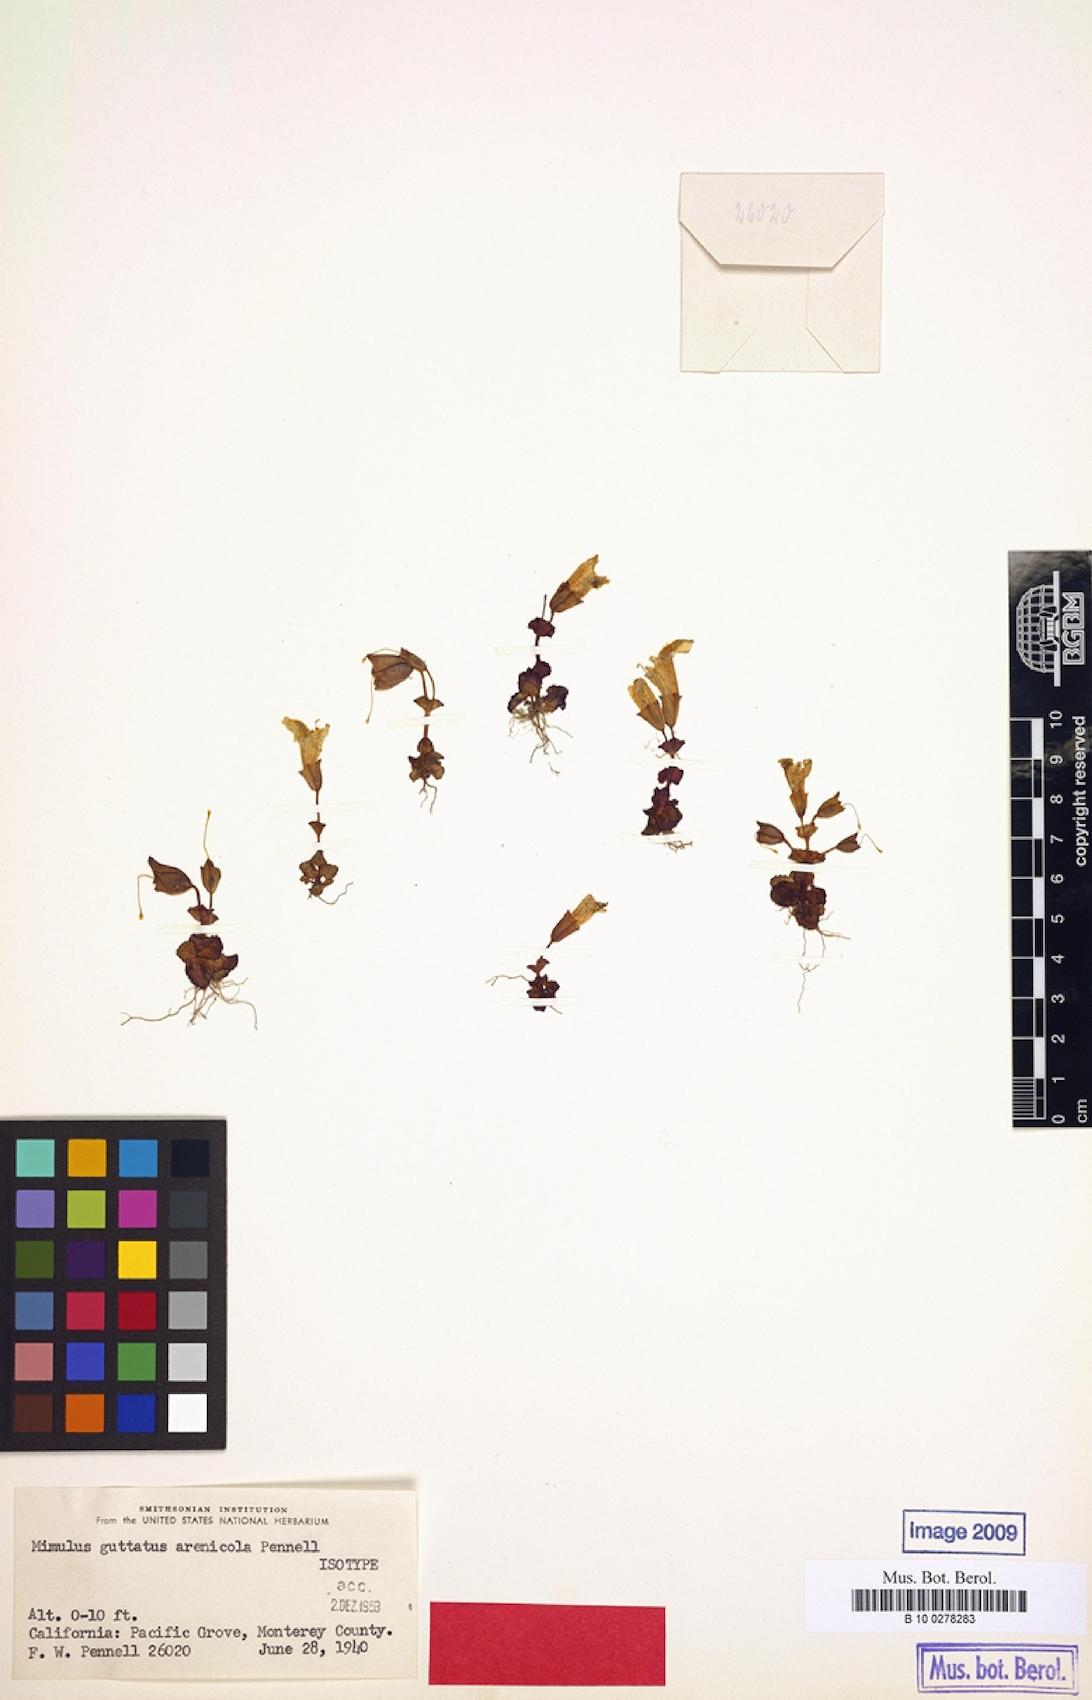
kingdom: Plantae
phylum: Tracheophyta
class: Magnoliopsida
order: Lamiales
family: Phrymaceae
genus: Erythranthe
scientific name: Erythranthe arenicola
